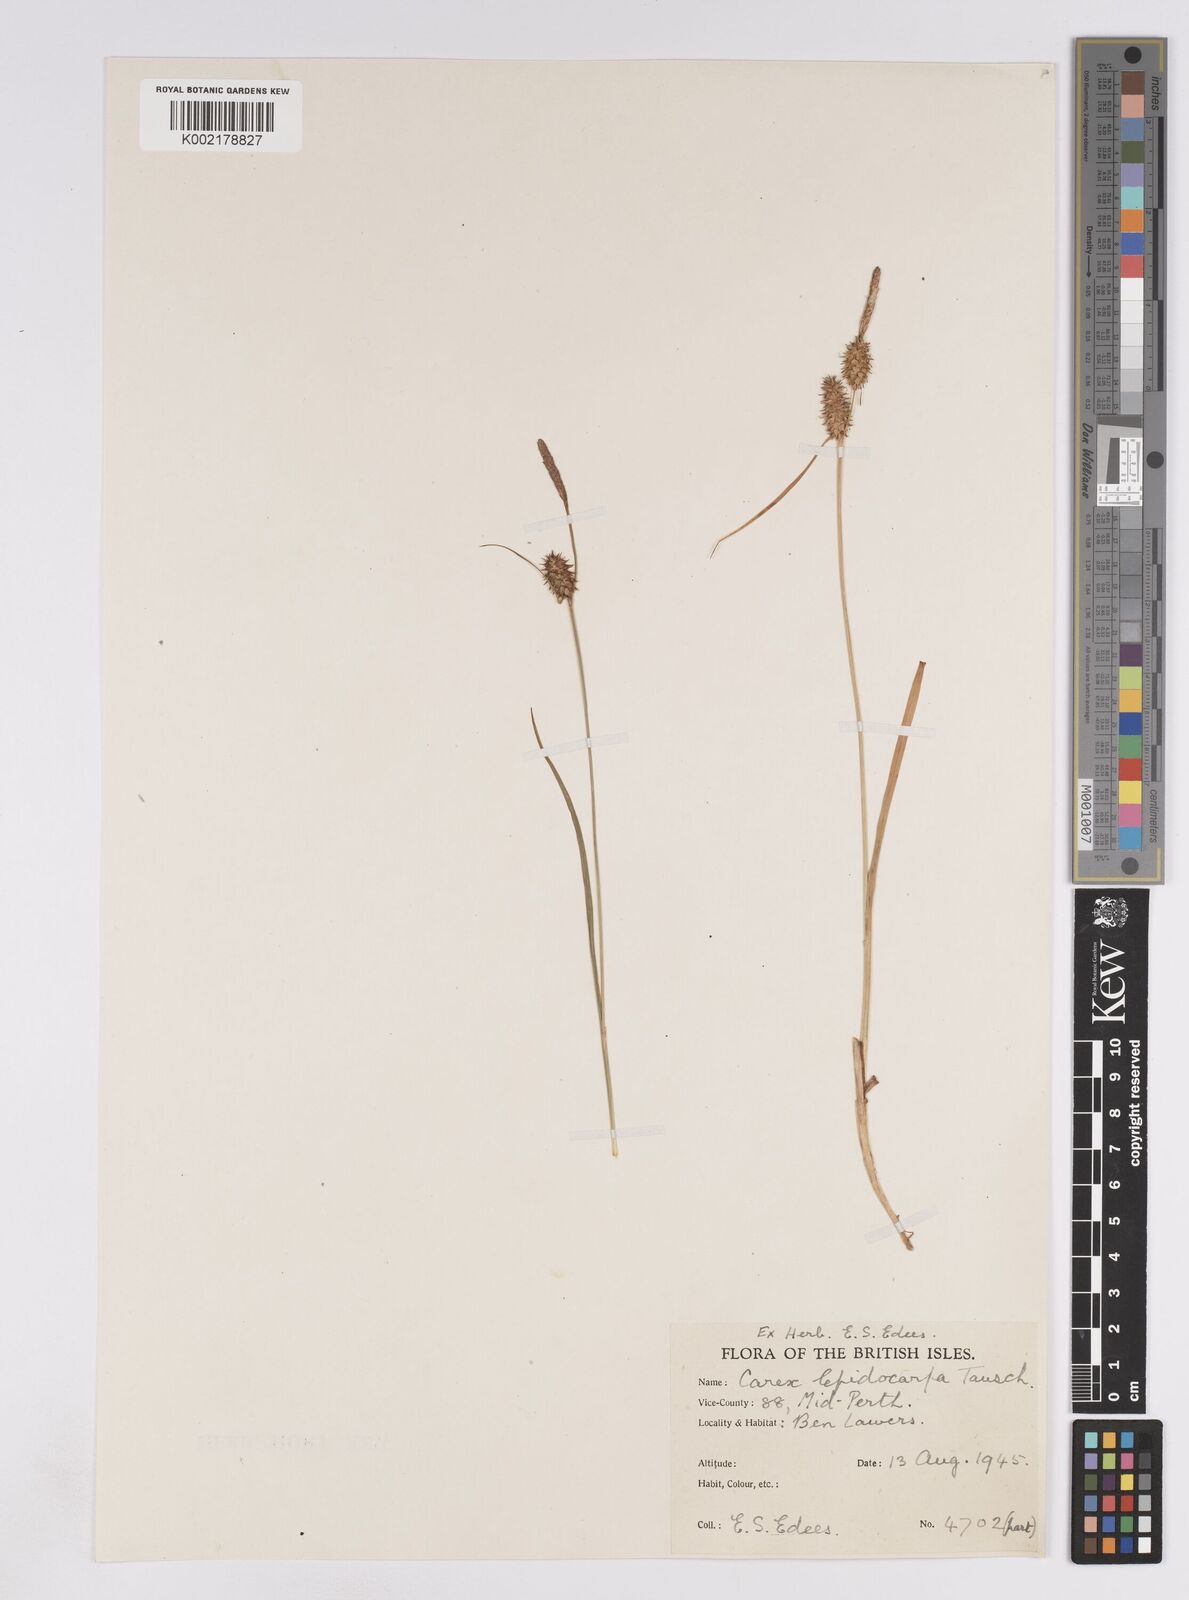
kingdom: Plantae
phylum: Tracheophyta
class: Liliopsida
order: Poales
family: Cyperaceae
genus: Carex
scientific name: Carex lepidocarpa
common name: Long-stalked yellow-sedge
